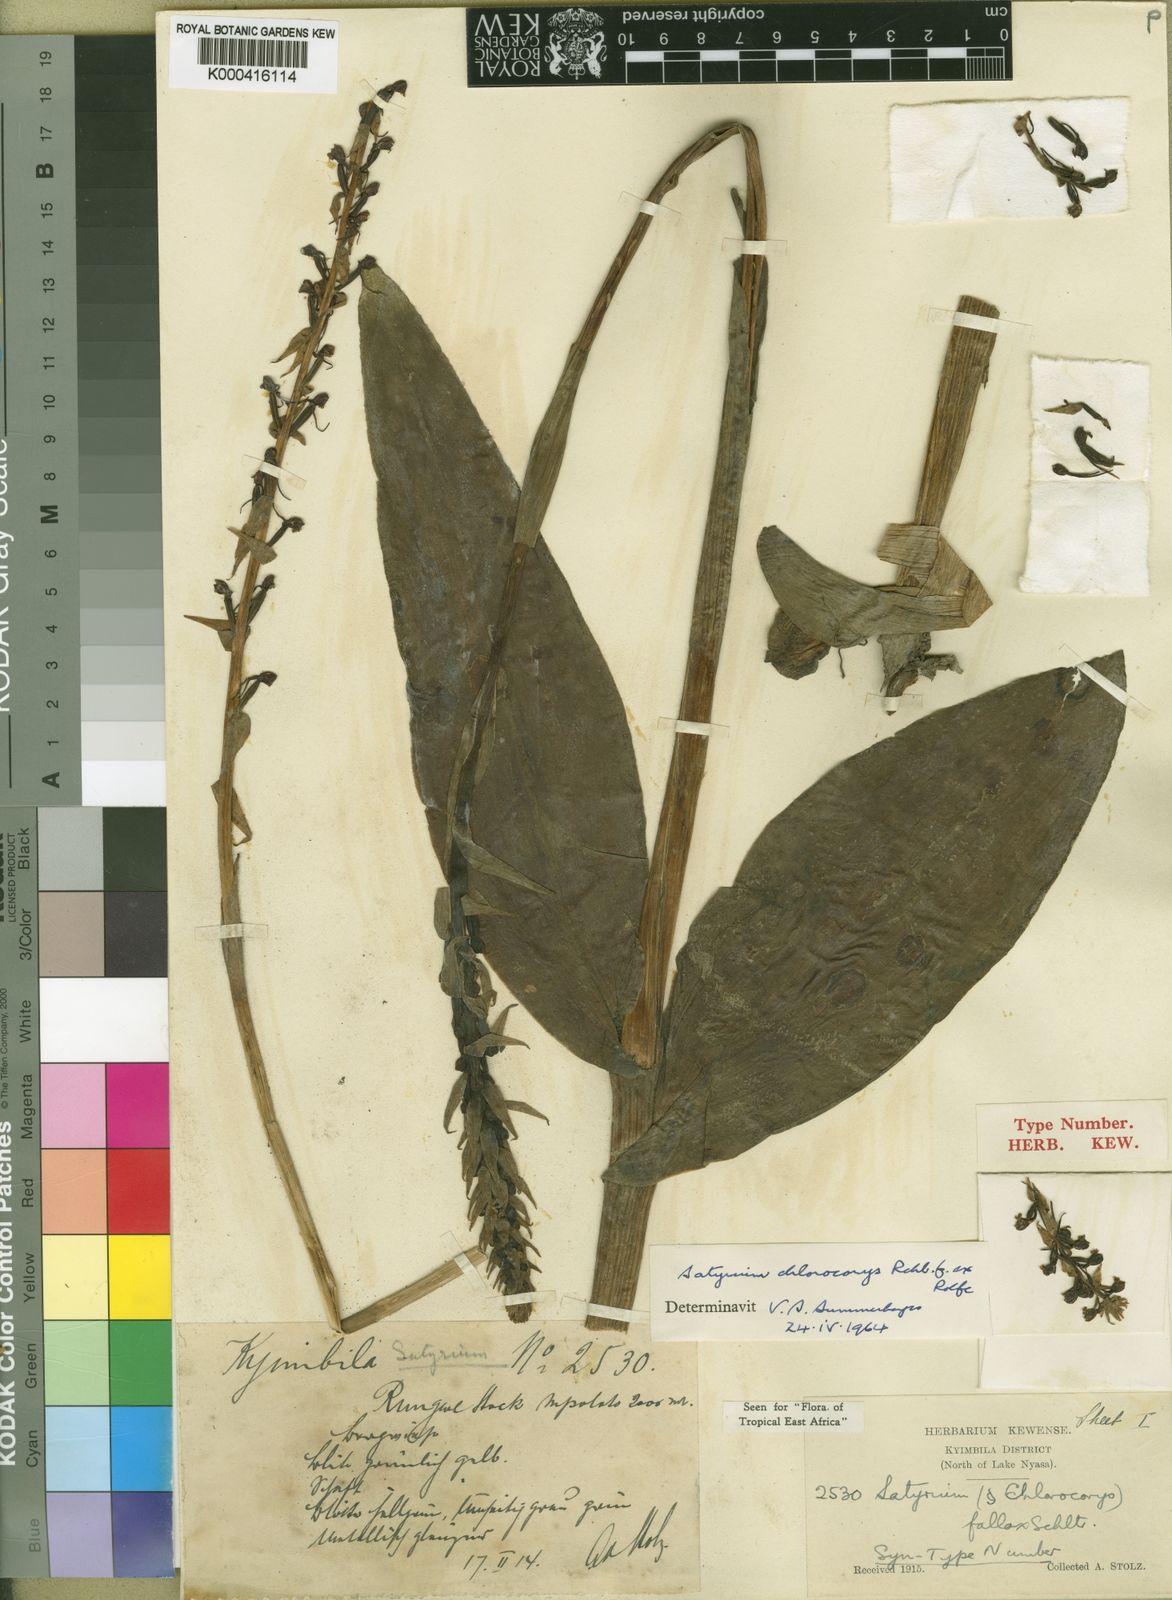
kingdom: Plantae
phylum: Tracheophyta
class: Liliopsida
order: Asparagales
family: Orchidaceae
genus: Satyrium
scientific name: Satyrium chlorocorys
